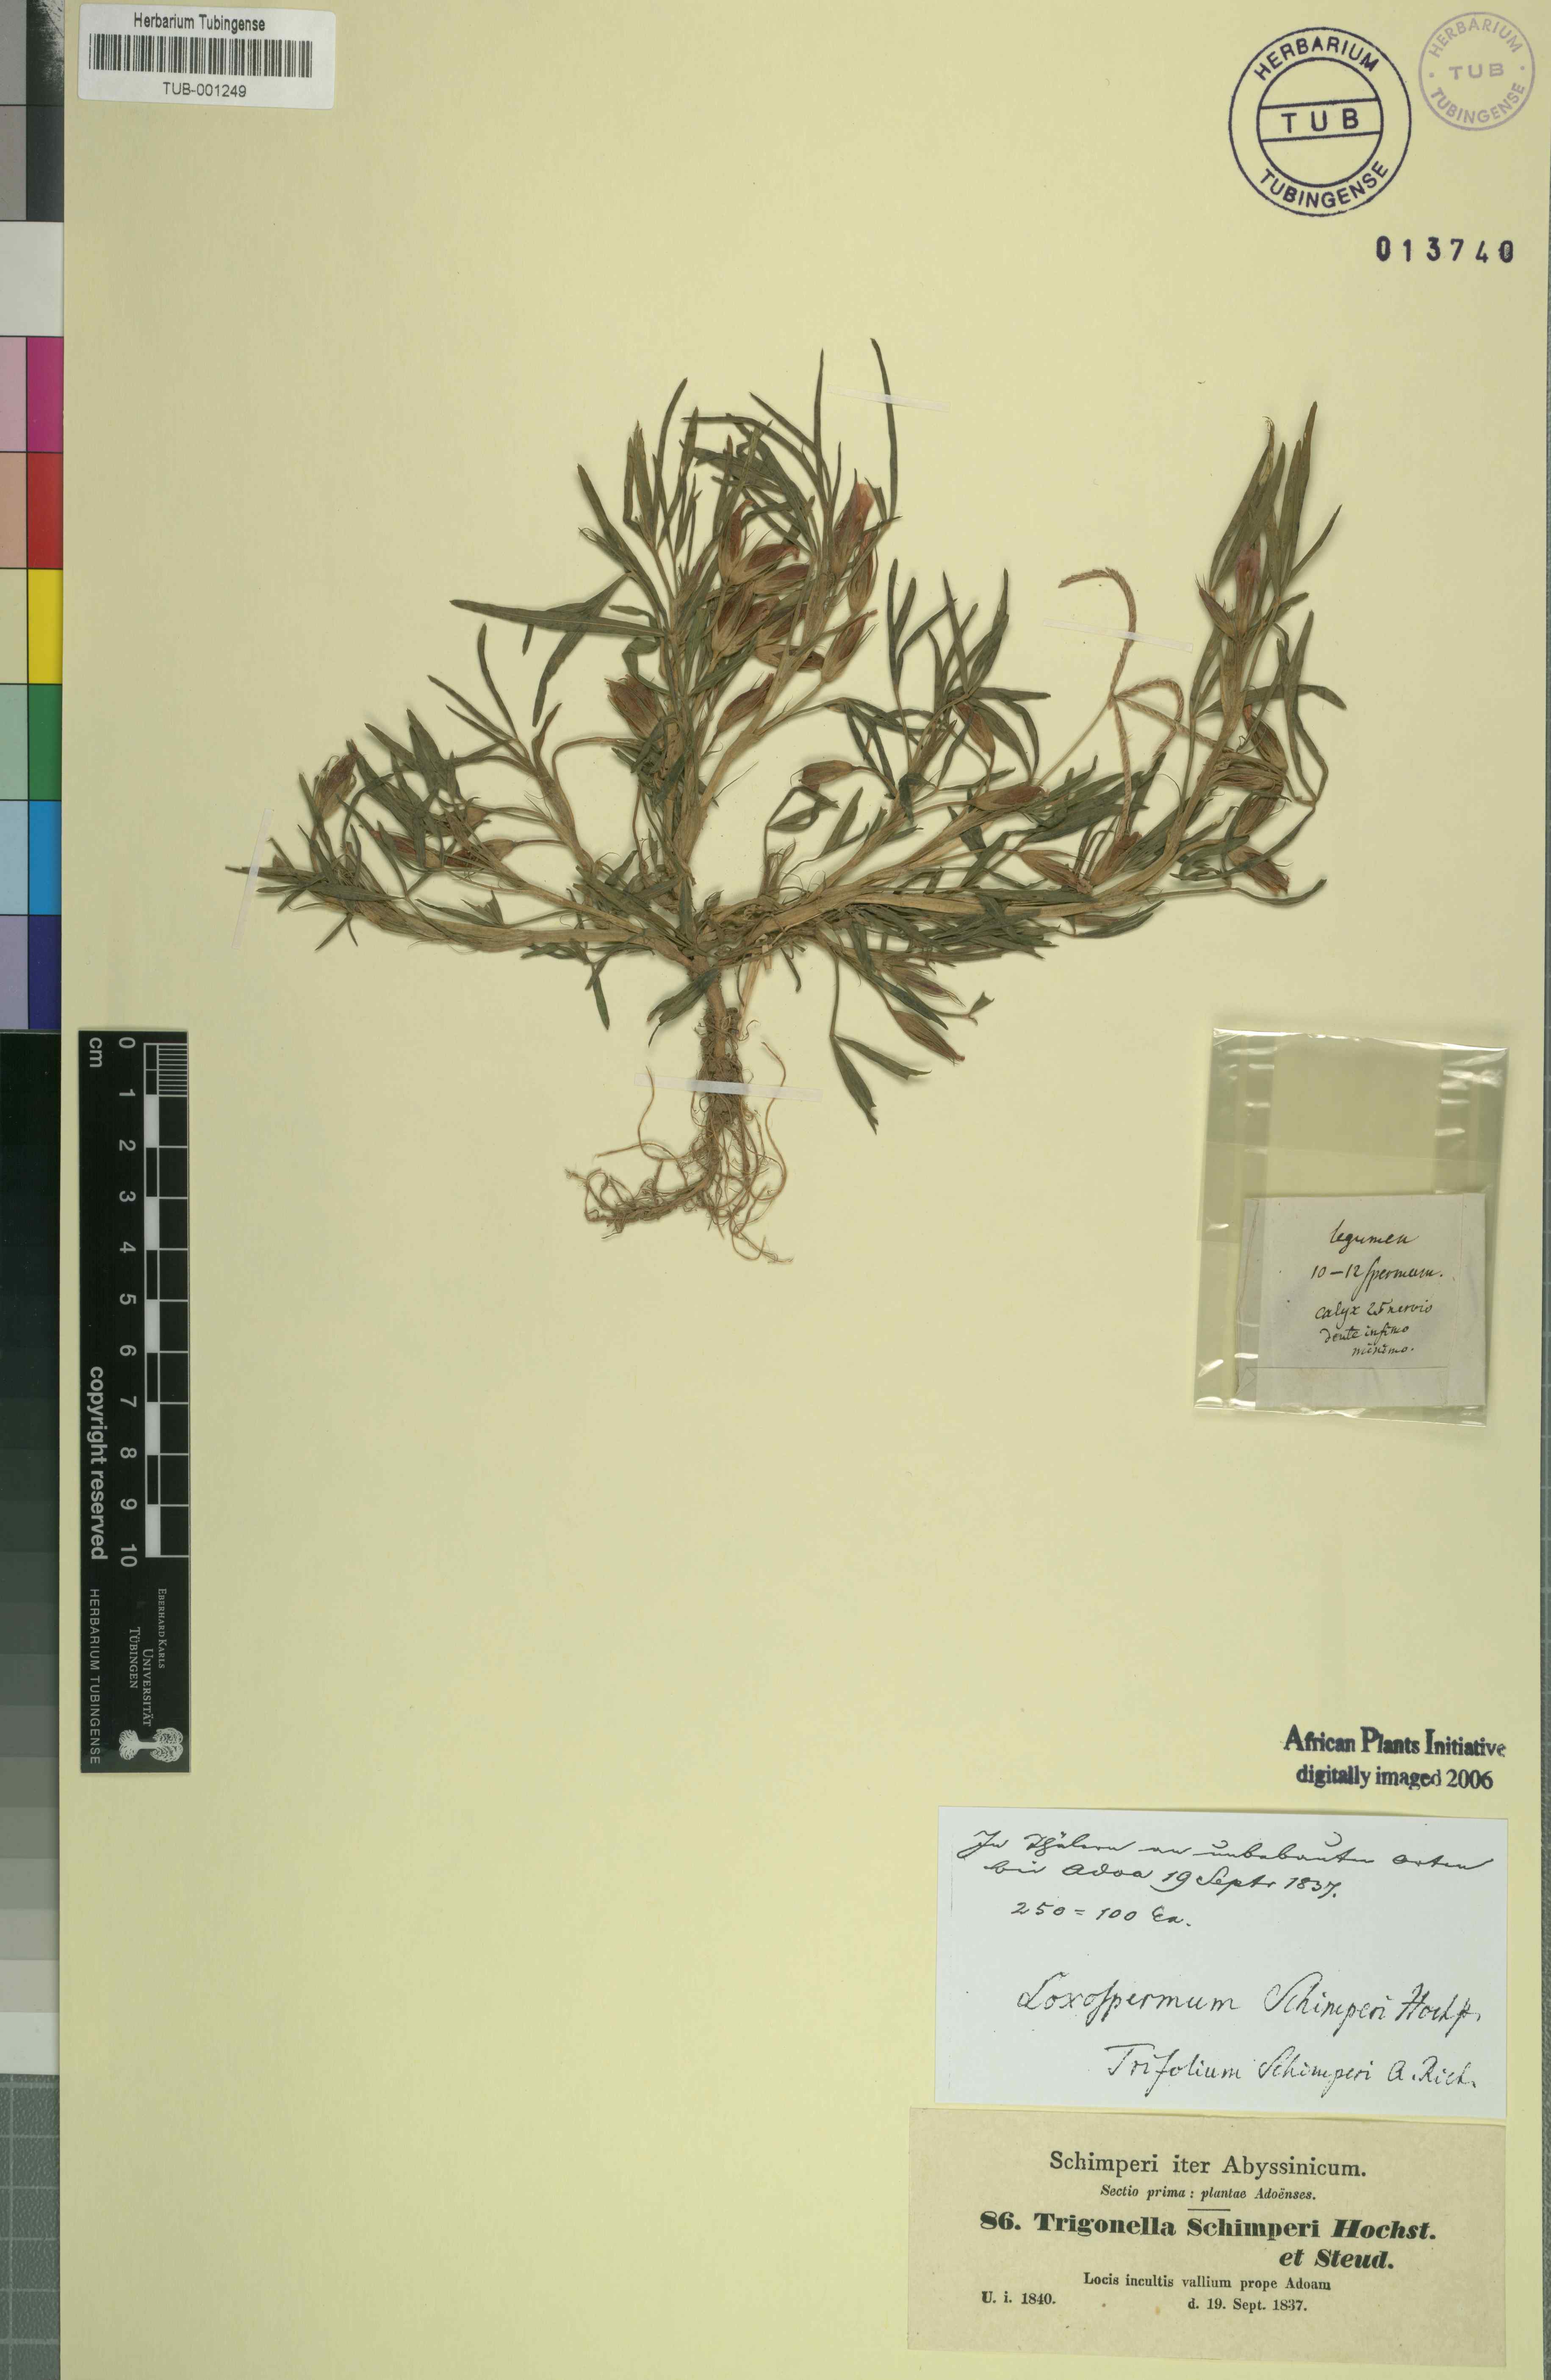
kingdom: Plantae
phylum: Tracheophyta
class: Magnoliopsida
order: Fabales
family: Fabaceae
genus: Trifolium
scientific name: Trifolium schimperi
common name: Schimper's clover
